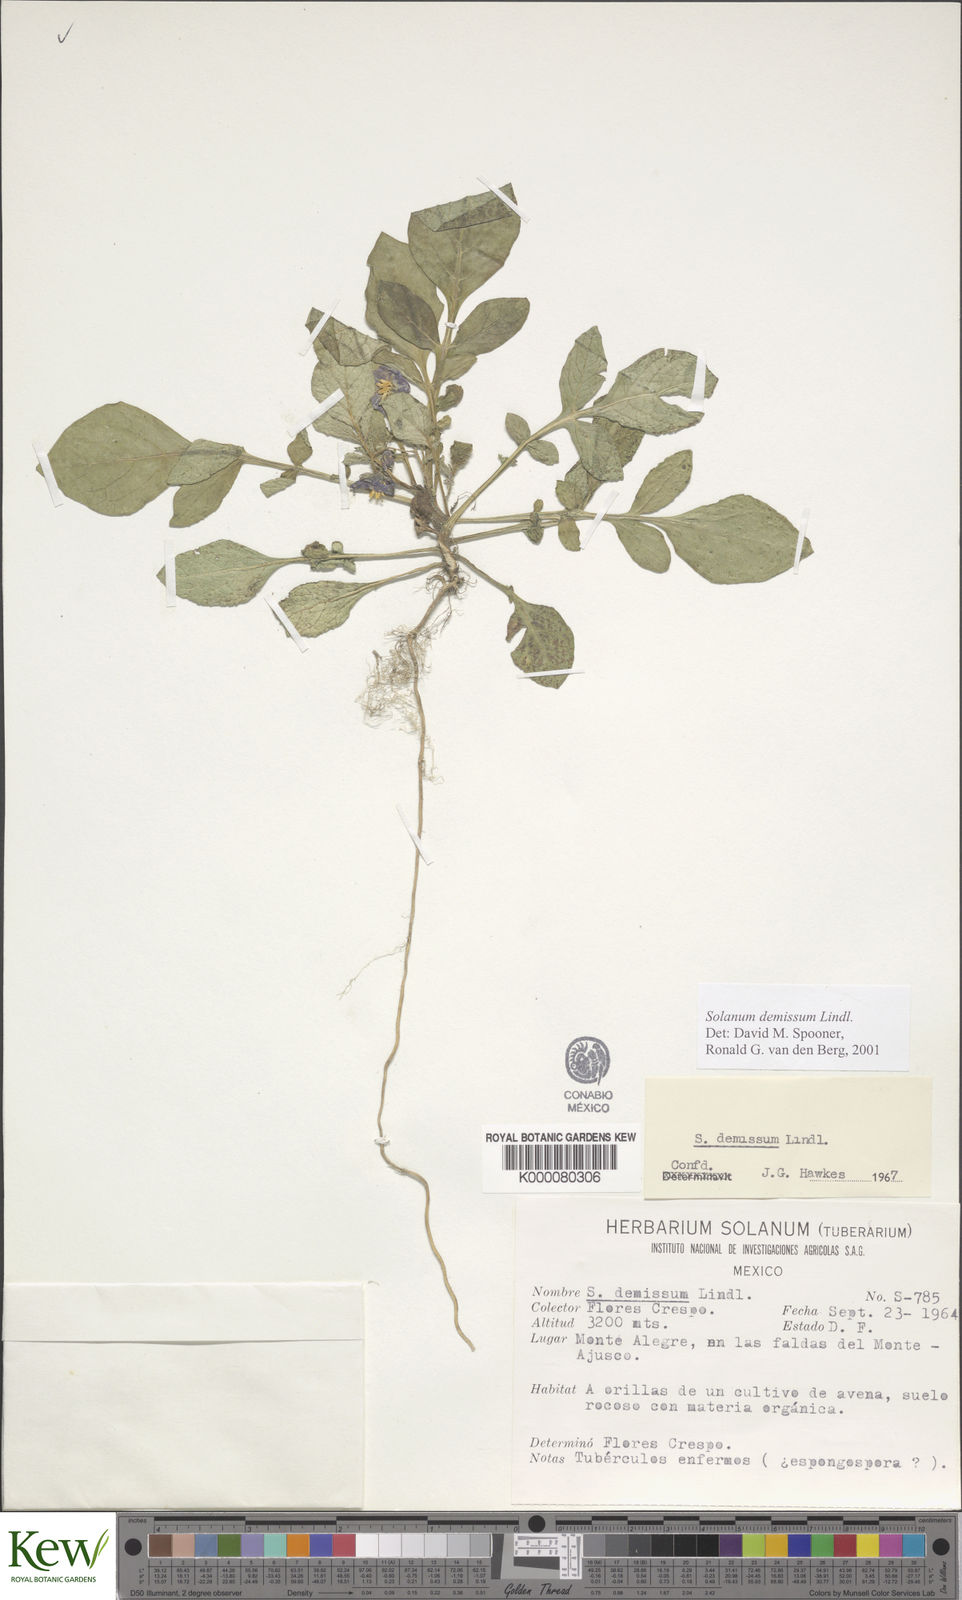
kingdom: Plantae
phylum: Tracheophyta
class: Magnoliopsida
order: Solanales
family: Solanaceae
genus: Solanum
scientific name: Solanum demissum
